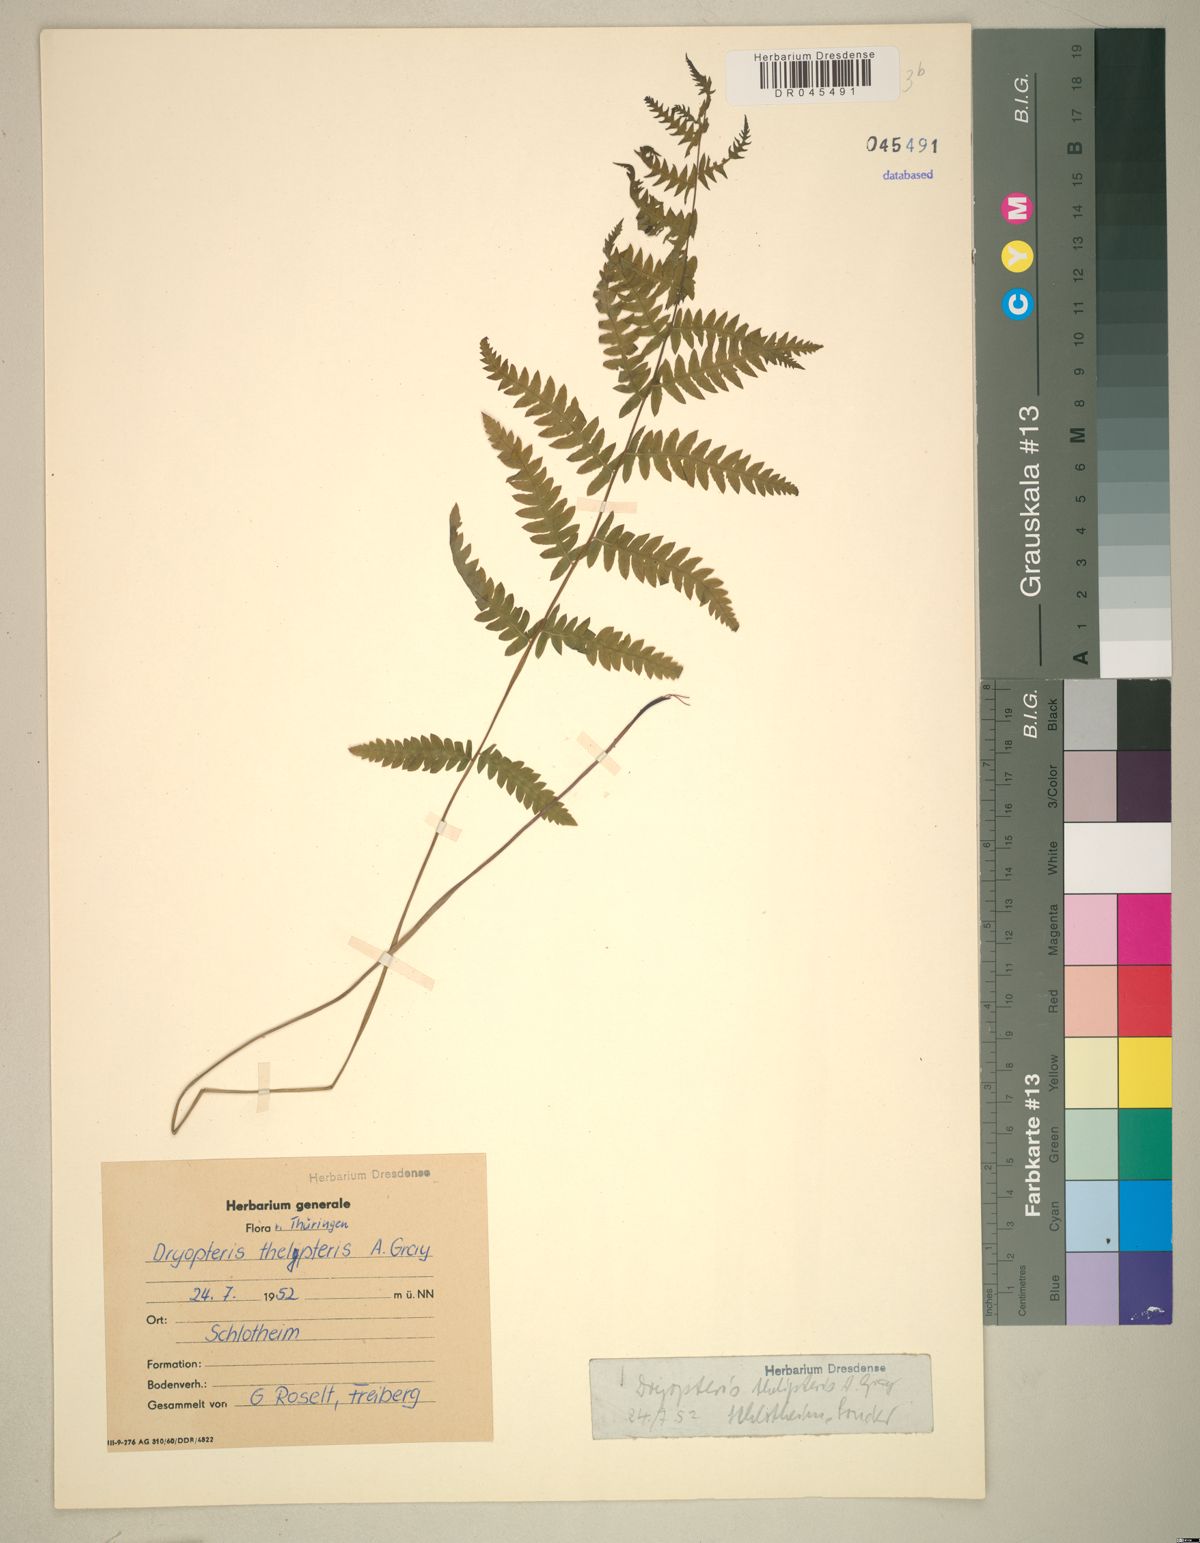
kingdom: Plantae
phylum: Tracheophyta
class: Polypodiopsida
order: Polypodiales
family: Thelypteridaceae
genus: Thelypteris
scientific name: Thelypteris palustris
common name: Marsh fern
